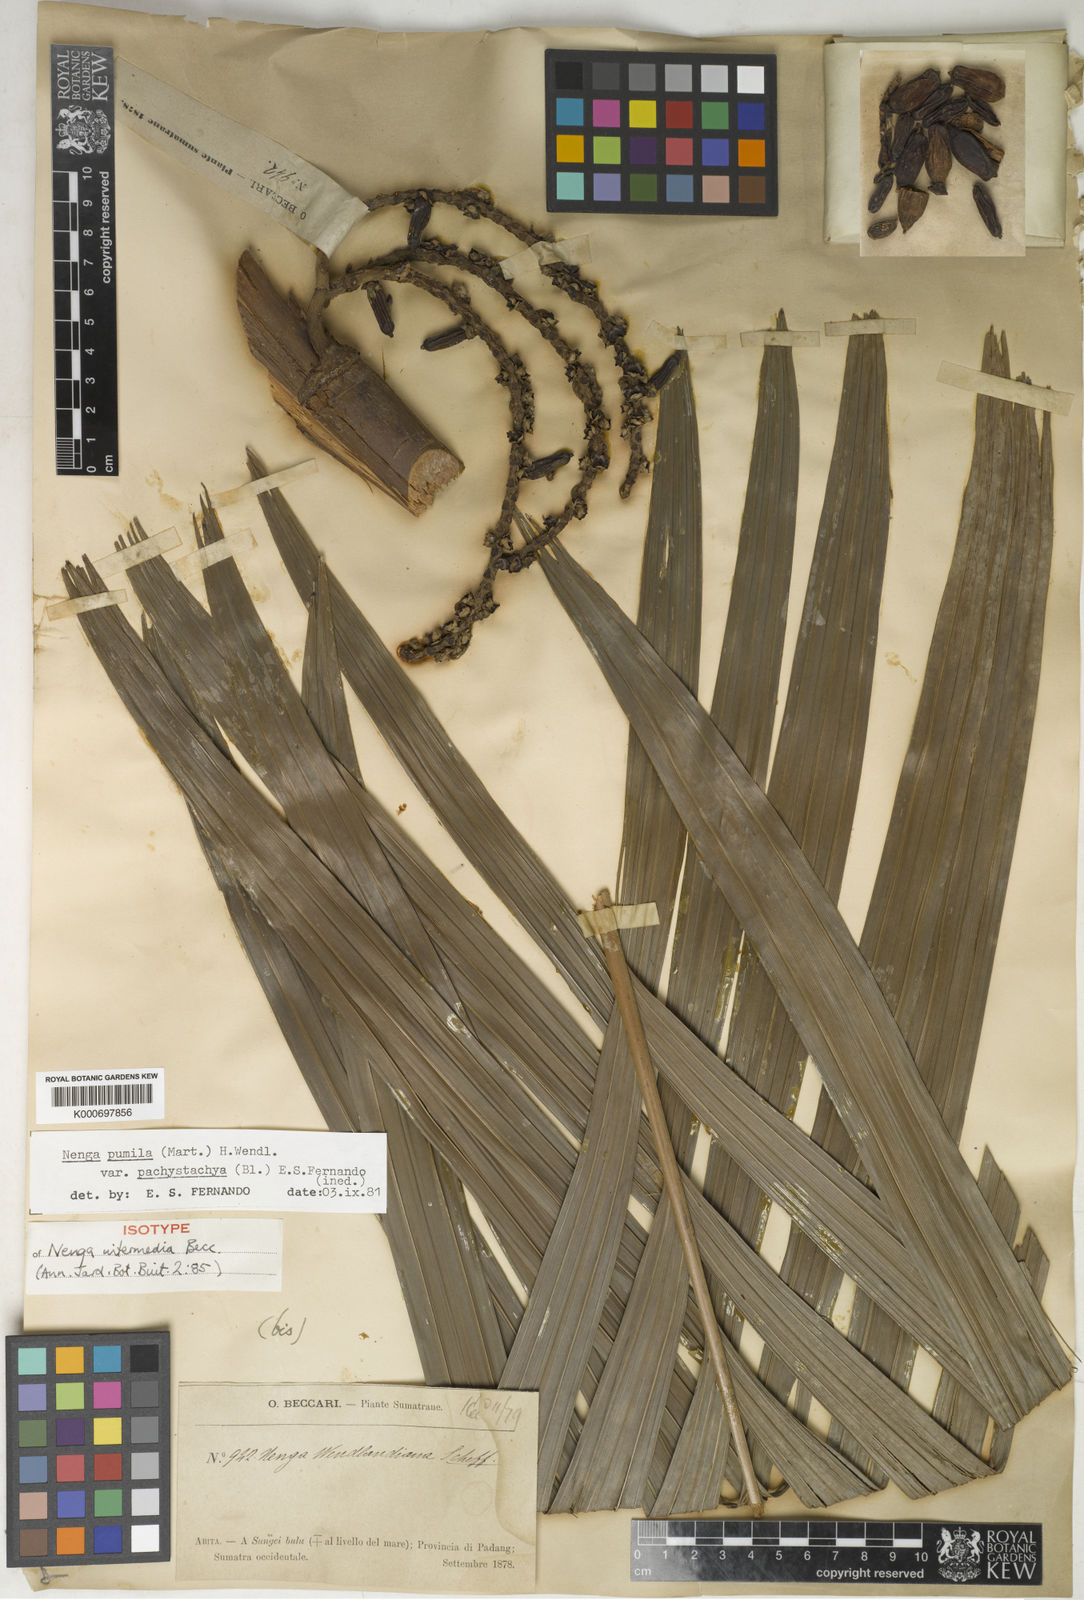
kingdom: Plantae
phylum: Tracheophyta
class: Liliopsida
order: Arecales
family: Arecaceae
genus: Nenga
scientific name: Nenga pumila
